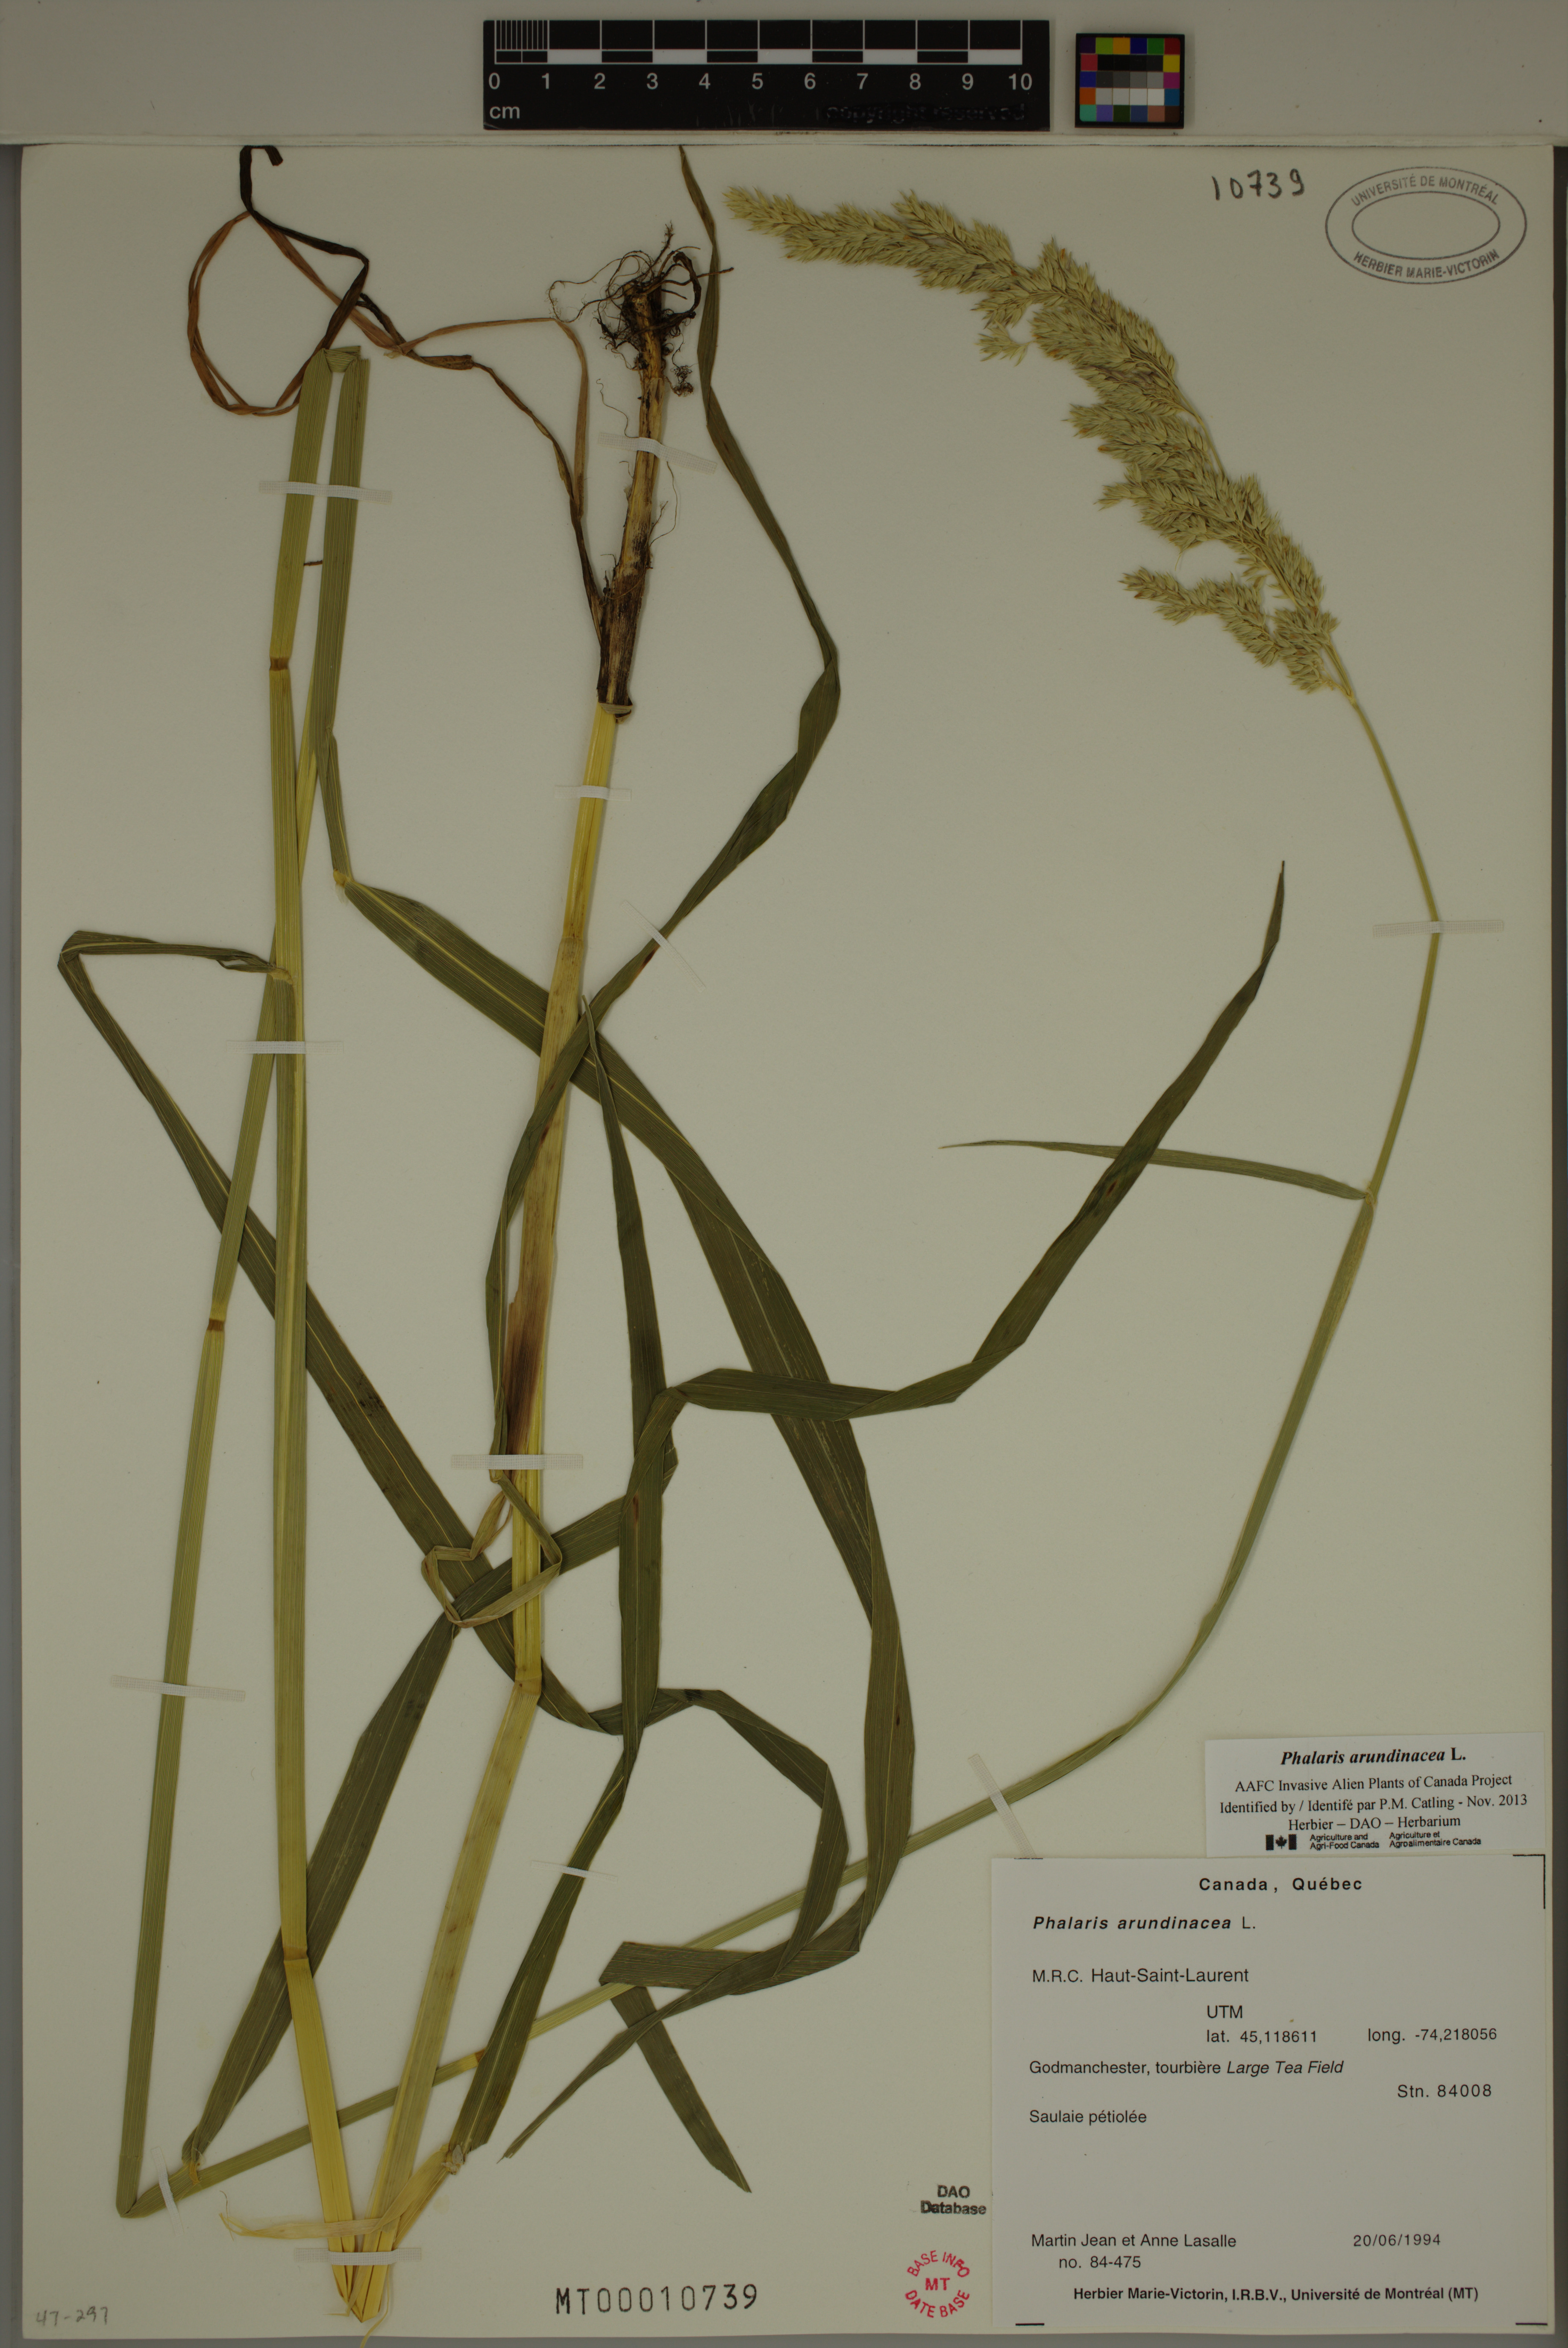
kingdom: Plantae
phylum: Tracheophyta
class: Liliopsida
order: Poales
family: Poaceae
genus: Phalaris
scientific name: Phalaris arundinacea
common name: Reed canary-grass
